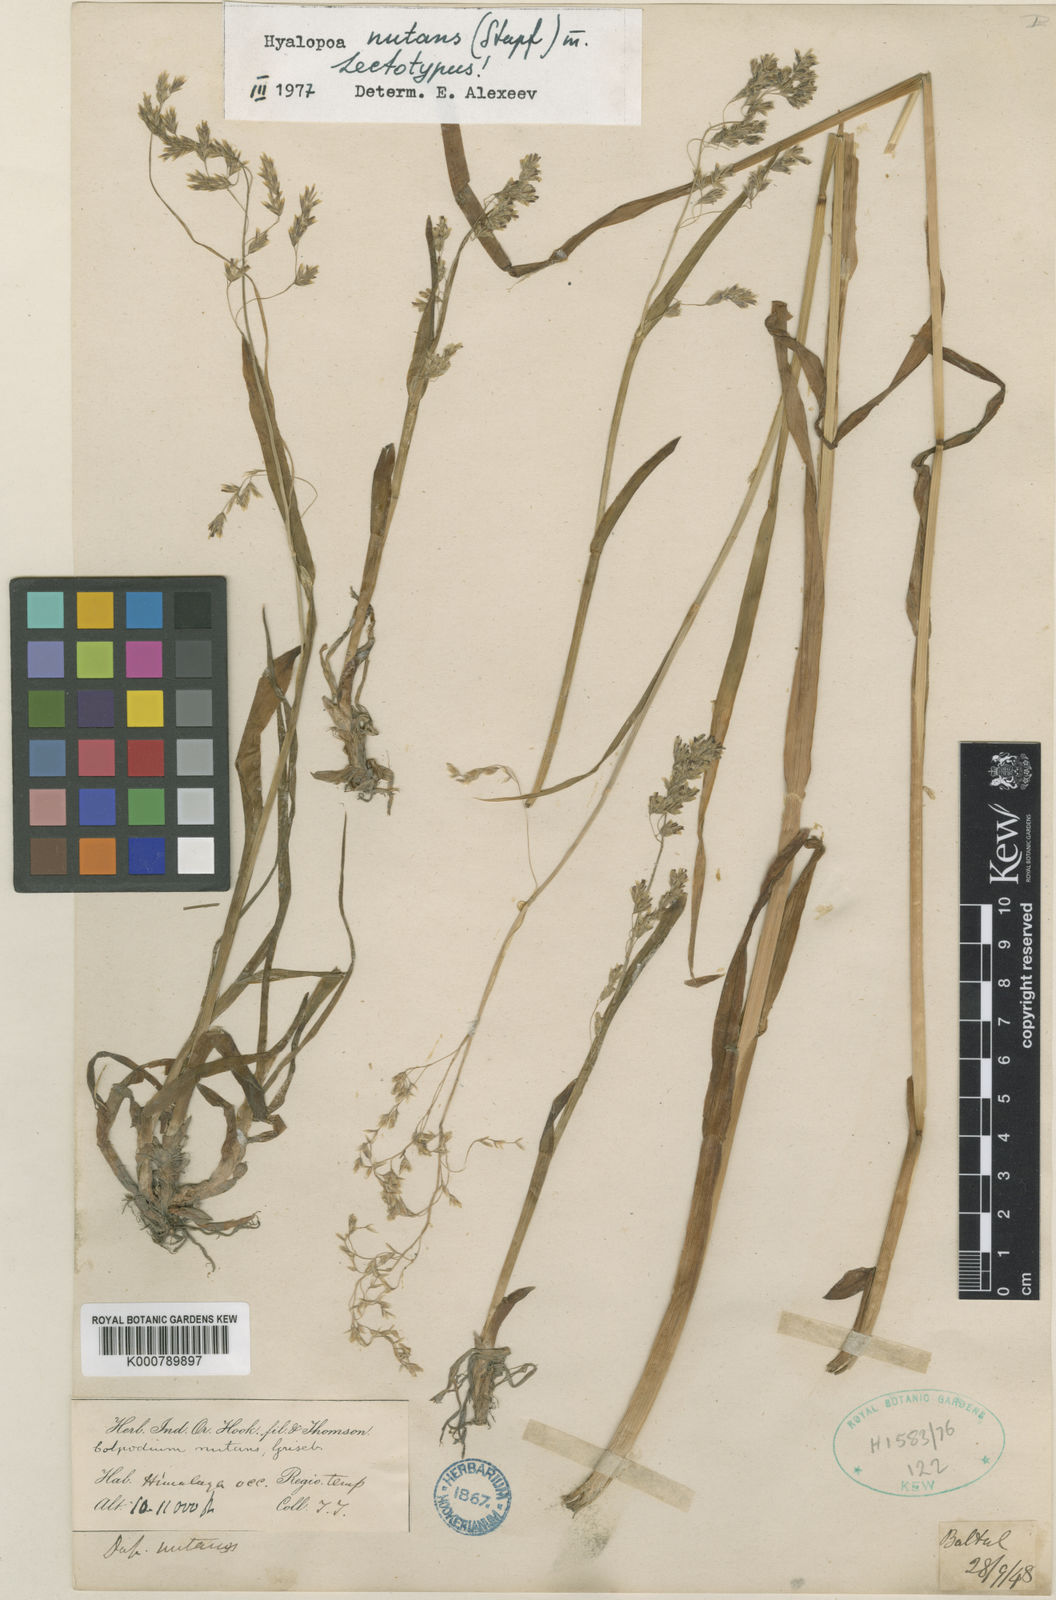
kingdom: Plantae
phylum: Tracheophyta
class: Liliopsida
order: Poales
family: Poaceae
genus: Hyalopoa
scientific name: Hyalopoa nutans
